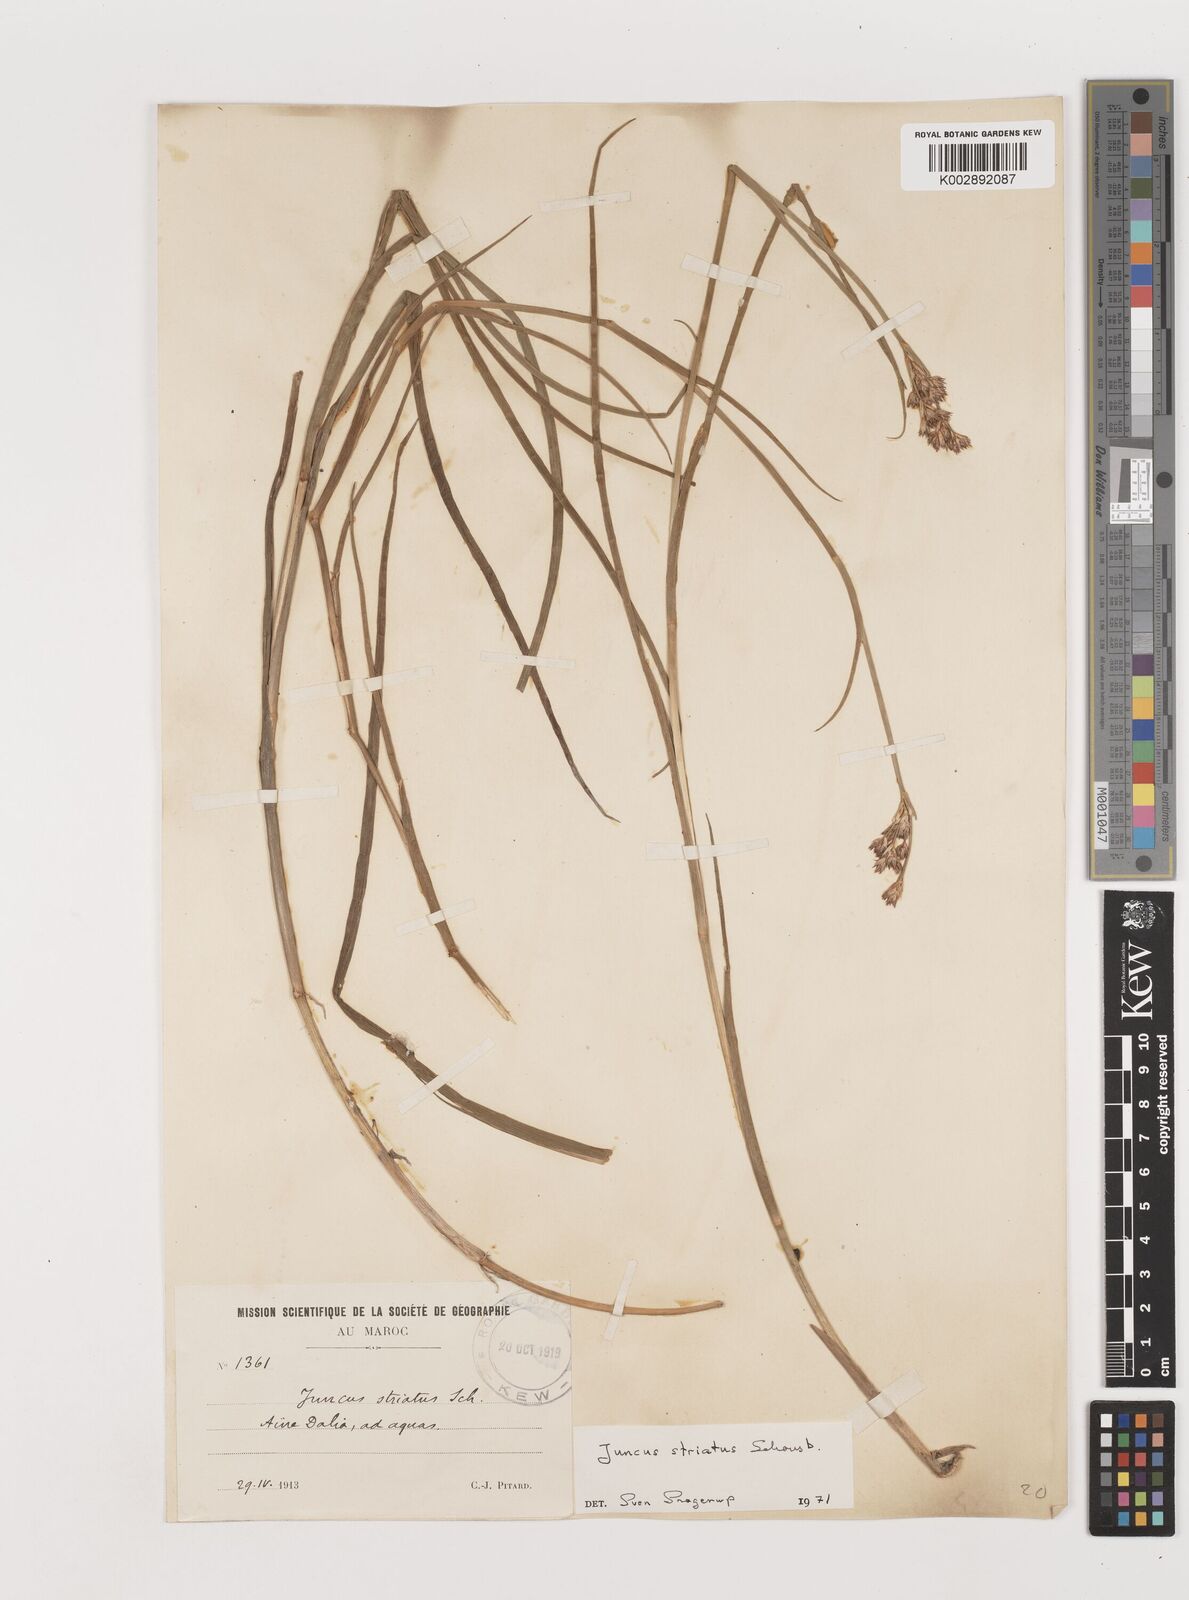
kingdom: Plantae
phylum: Tracheophyta
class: Liliopsida
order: Poales
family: Juncaceae
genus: Juncus
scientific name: Juncus striatus
